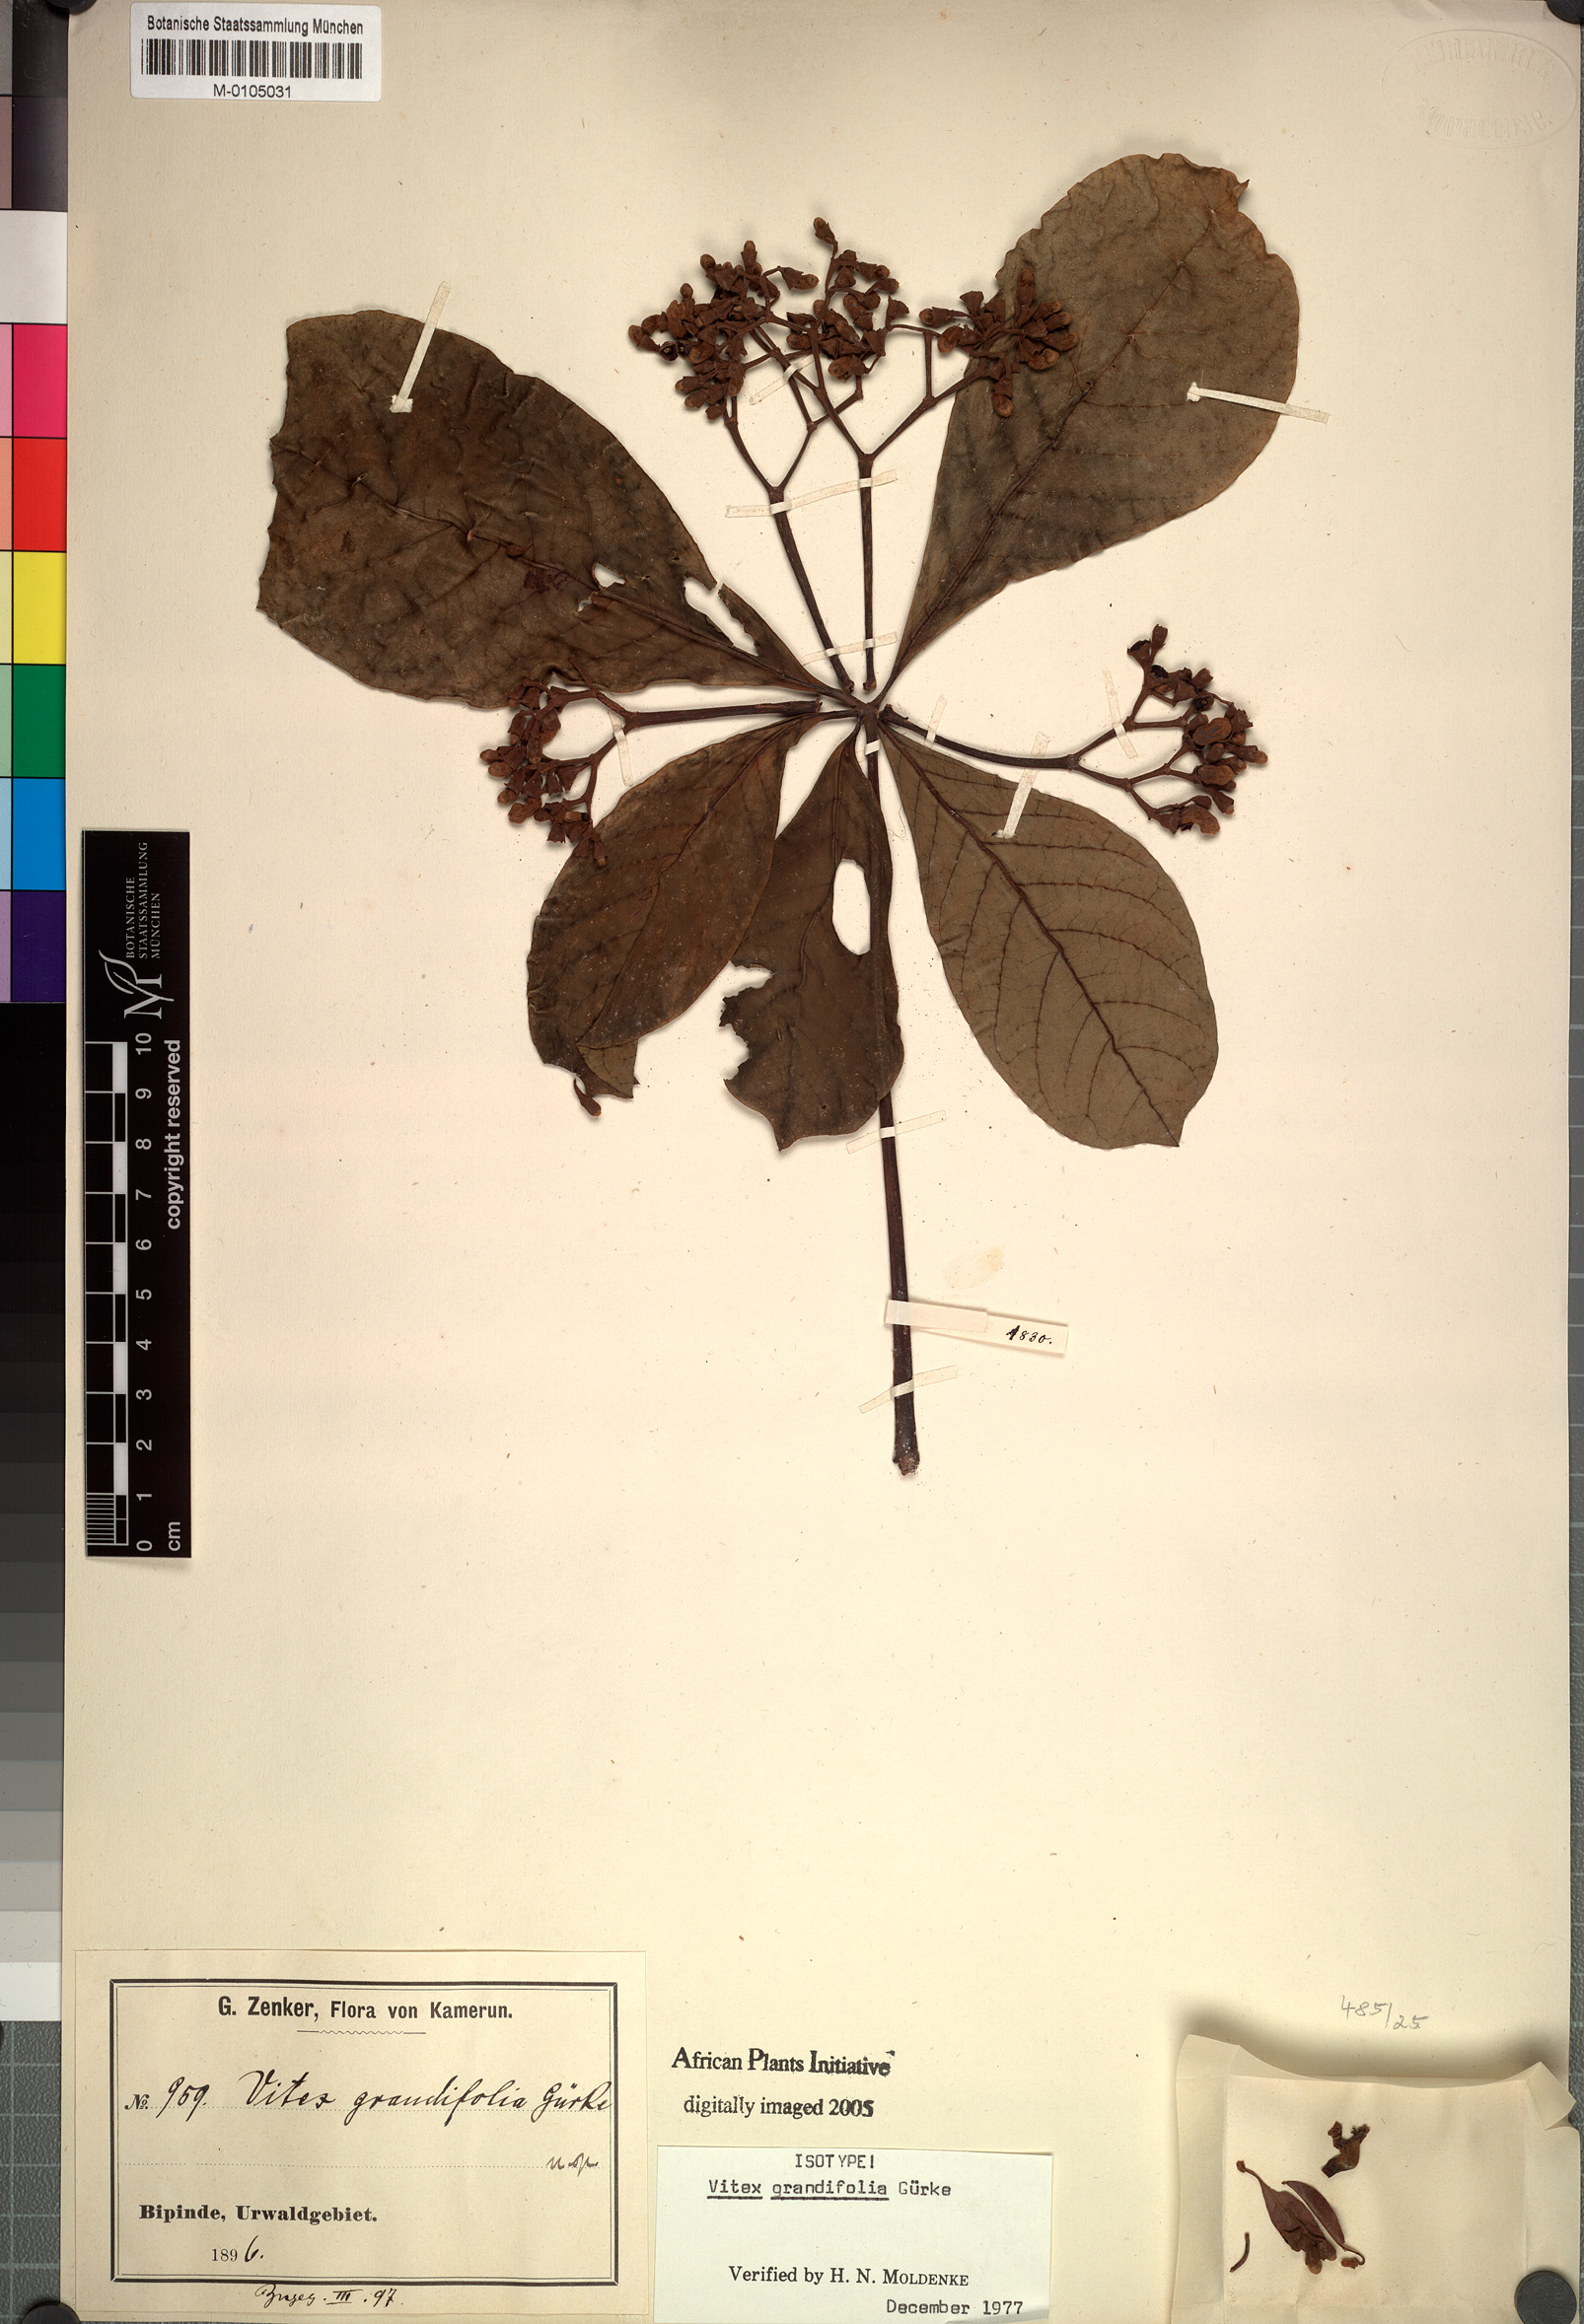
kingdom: Plantae
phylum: Tracheophyta
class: Magnoliopsida
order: Lamiales
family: Lamiaceae
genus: Vitex
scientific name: Vitex grandifolia
